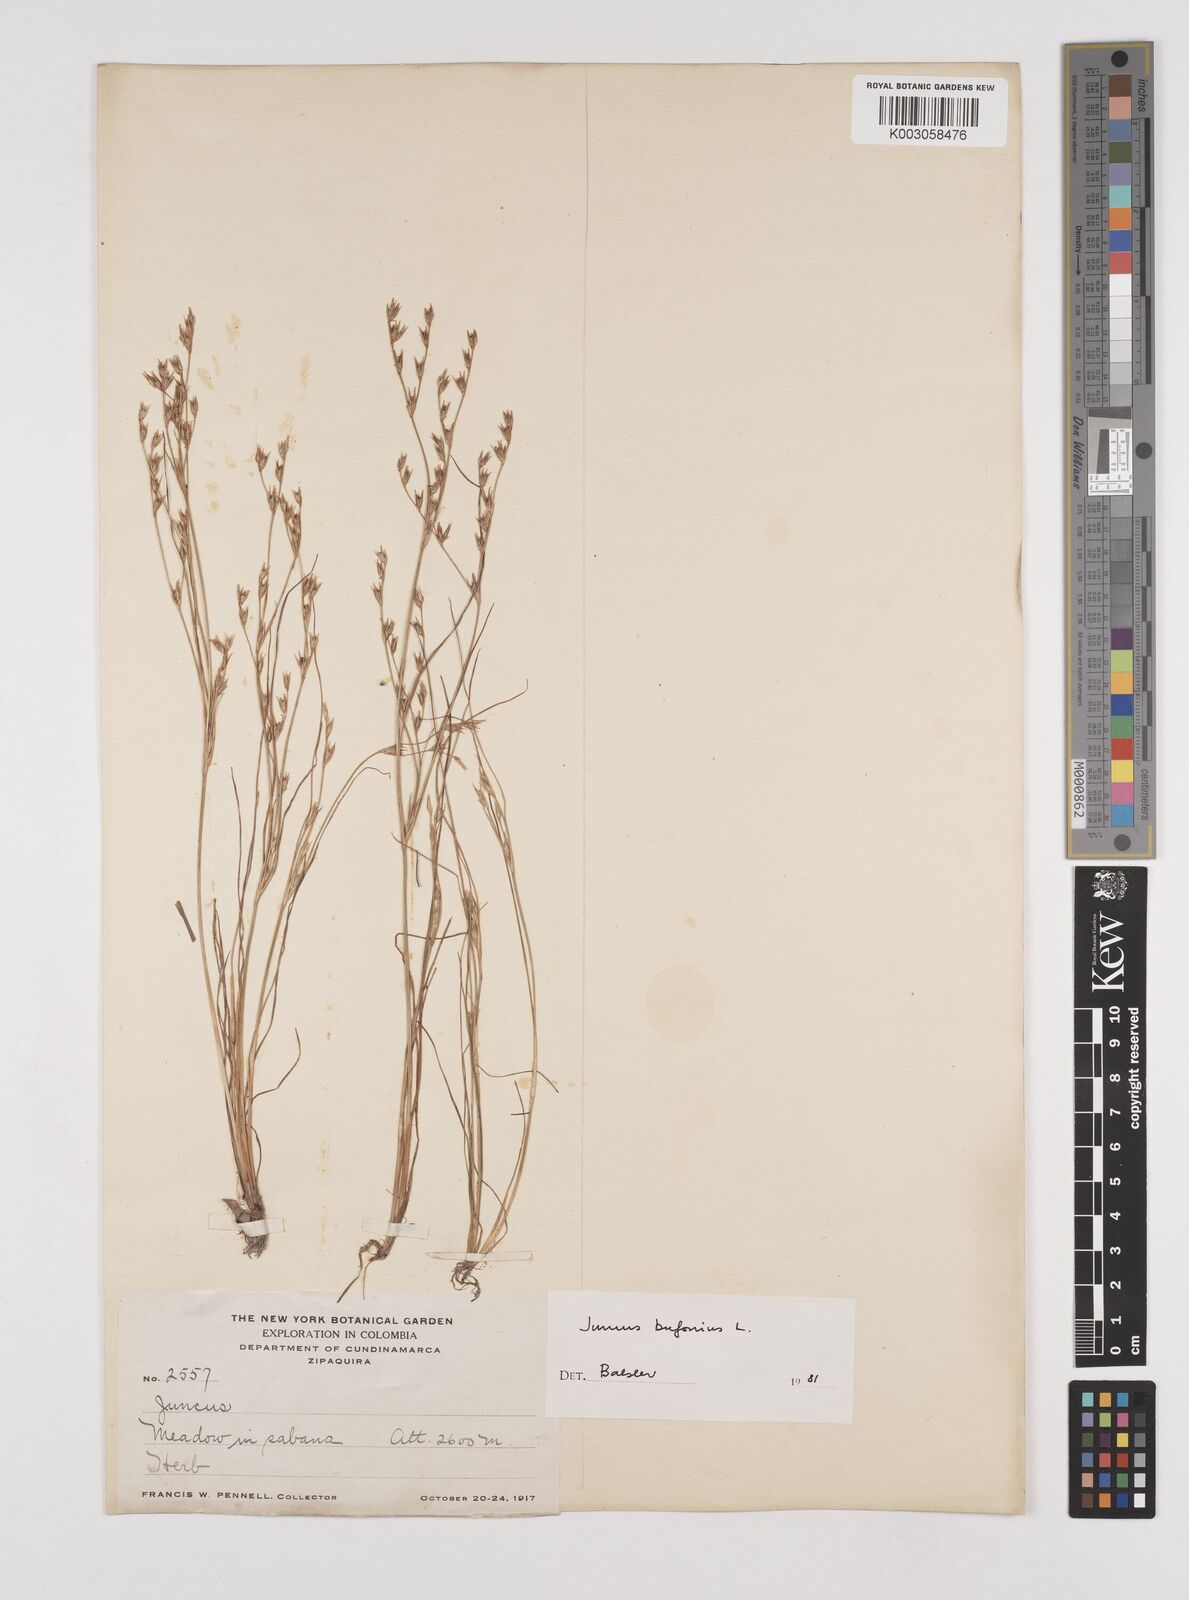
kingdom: Plantae
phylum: Tracheophyta
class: Liliopsida
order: Poales
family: Juncaceae
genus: Juncus
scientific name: Juncus bufonius
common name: Toad rush
